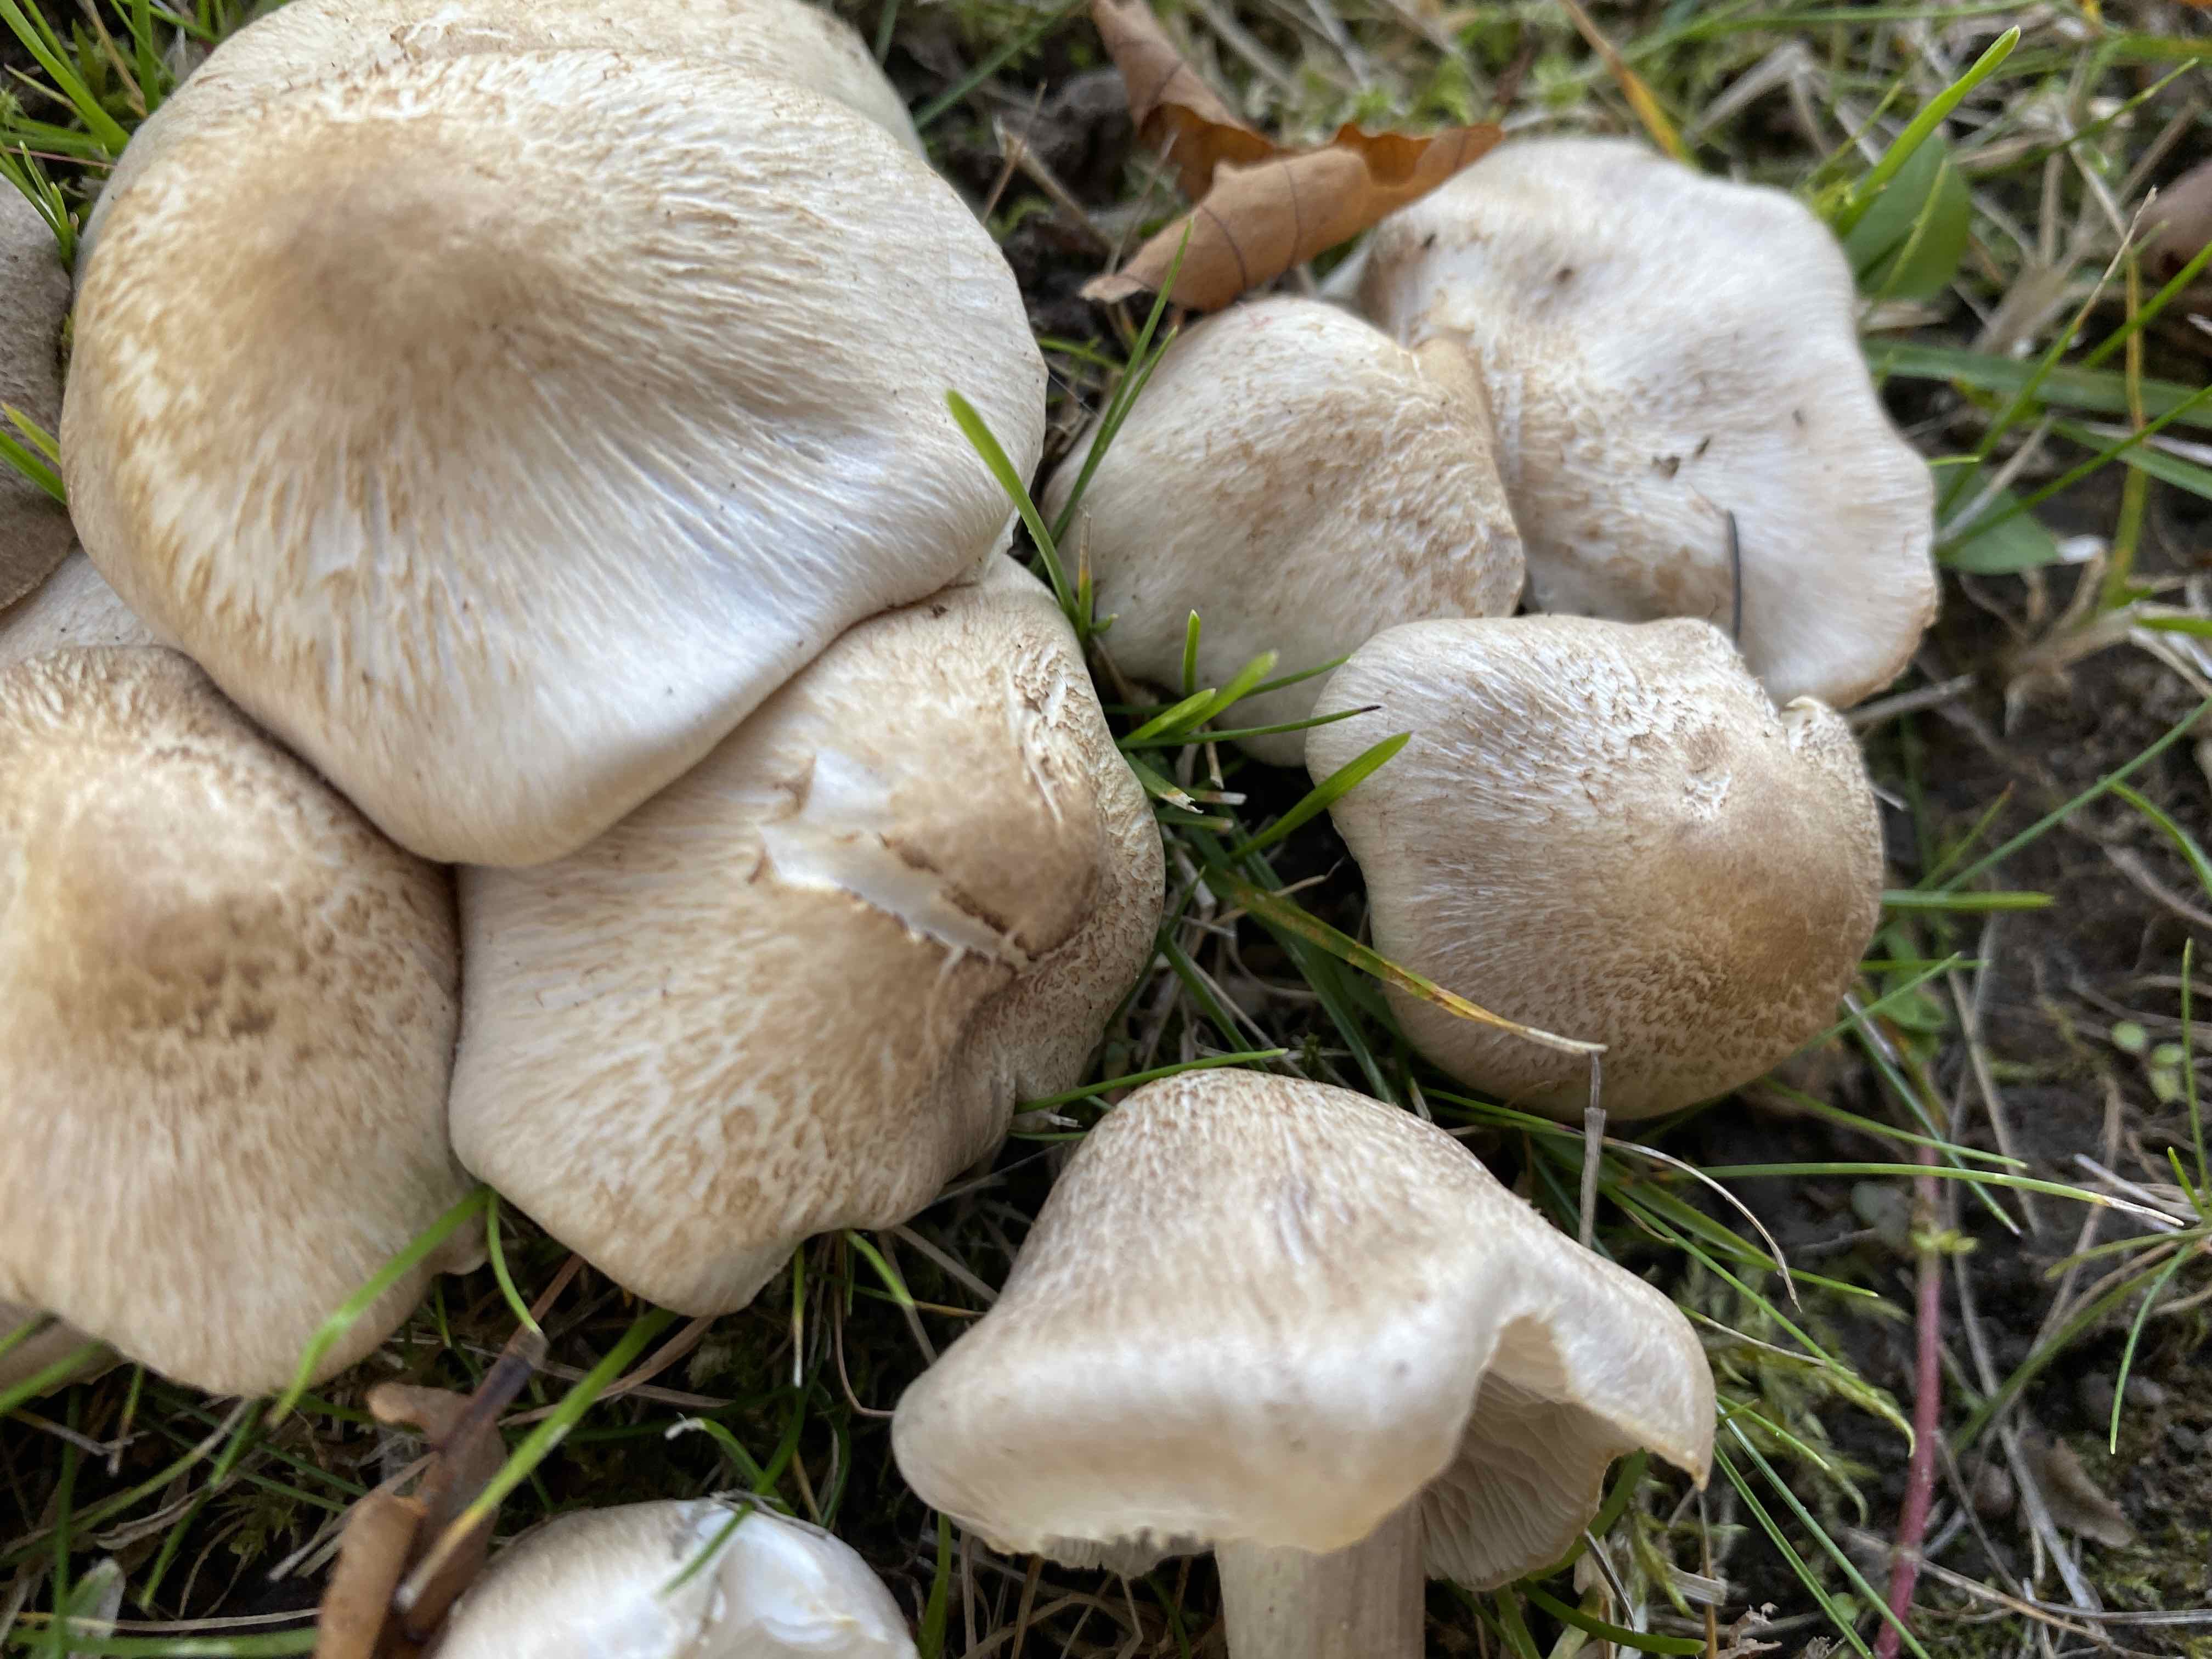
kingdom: Fungi
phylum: Basidiomycota
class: Agaricomycetes
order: Agaricales
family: Tricholomataceae
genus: Tricholoma
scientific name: Tricholoma argyraceum
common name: spids ridderhat
